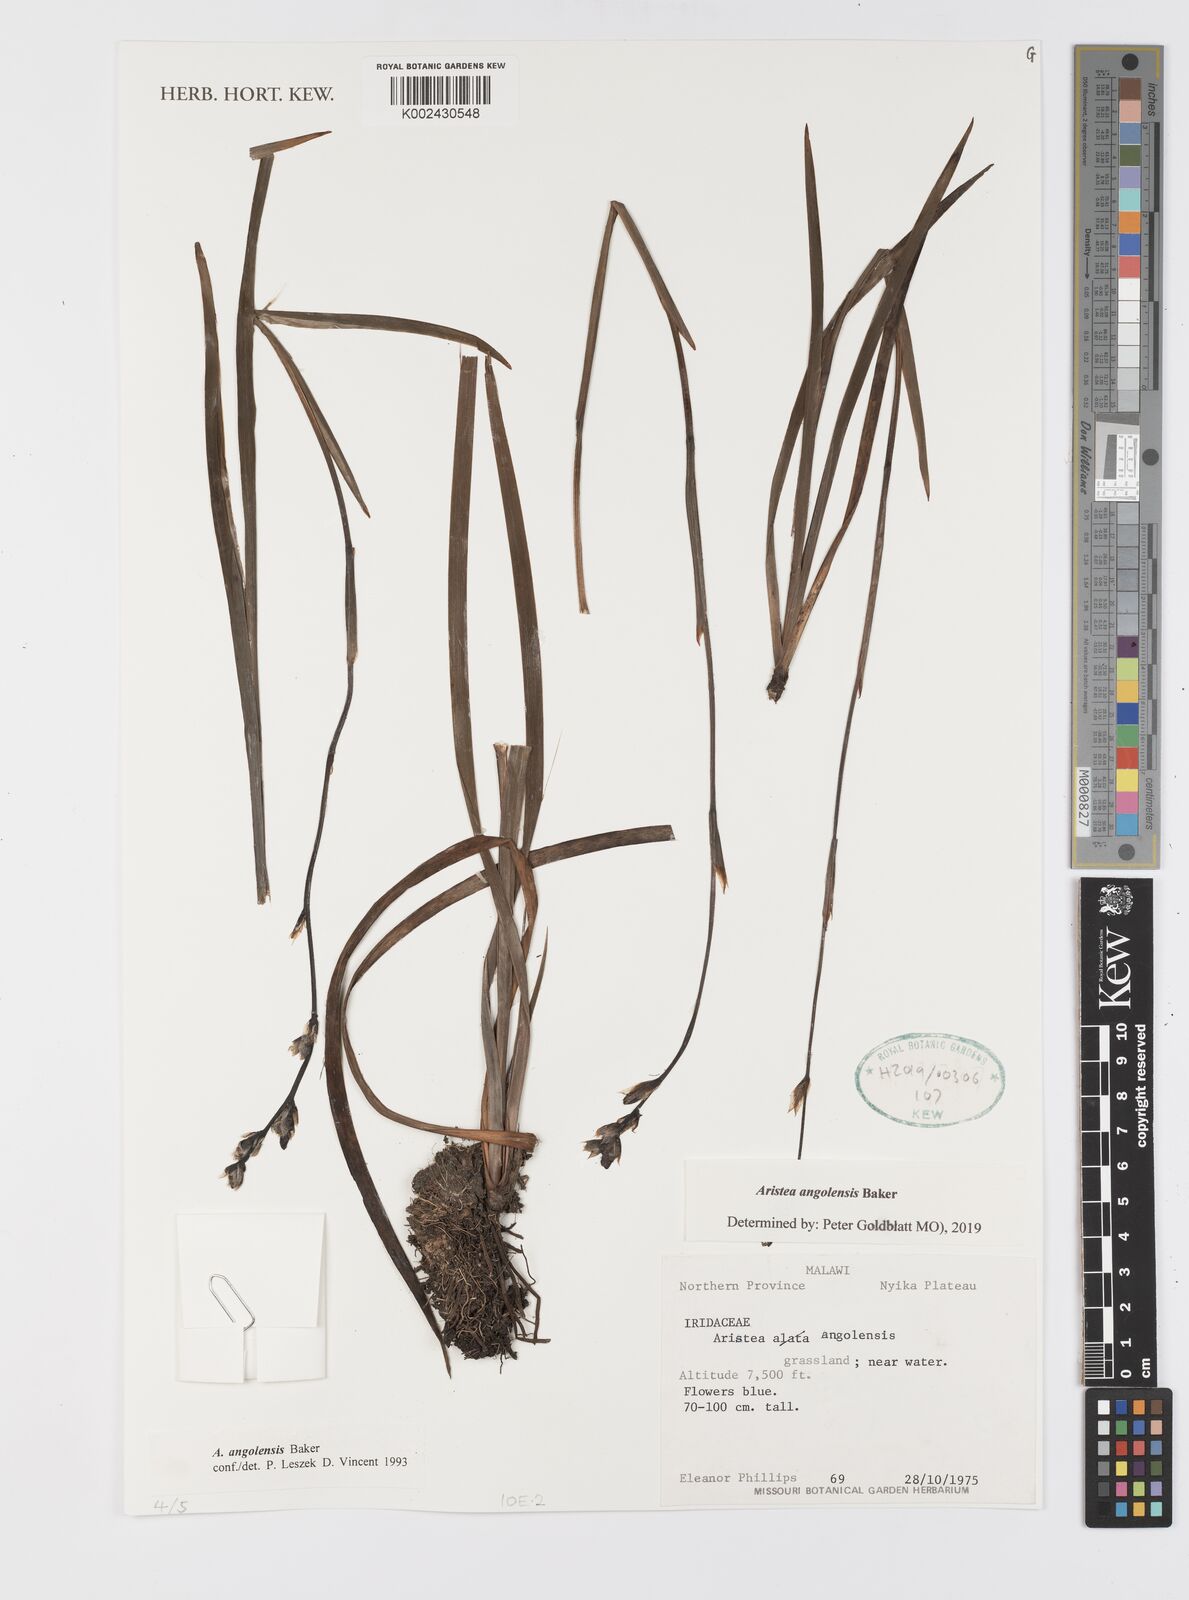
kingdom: Plantae
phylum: Tracheophyta
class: Liliopsida
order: Asparagales
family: Iridaceae
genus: Aristea
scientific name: Aristea angolensis
